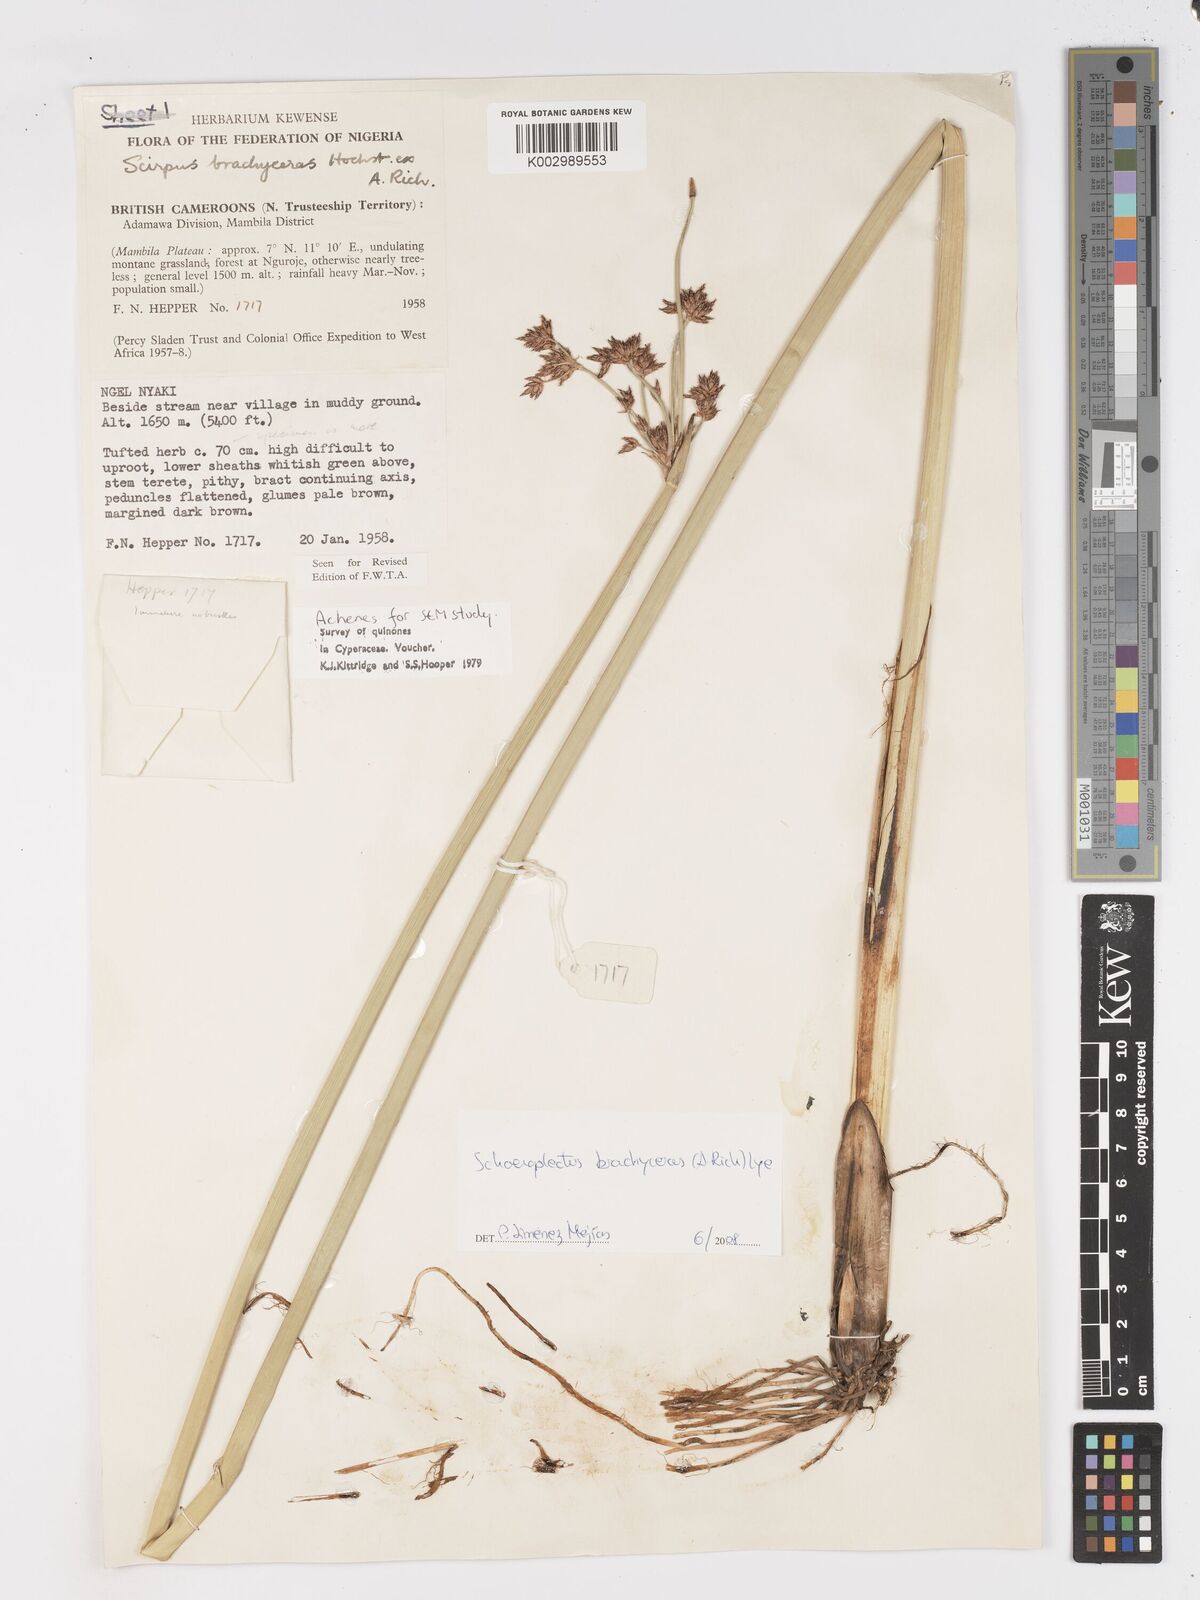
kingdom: Plantae
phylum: Tracheophyta
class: Liliopsida
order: Poales
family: Cyperaceae
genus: Schoenoplectiella
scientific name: Schoenoplectiella corymbosa
